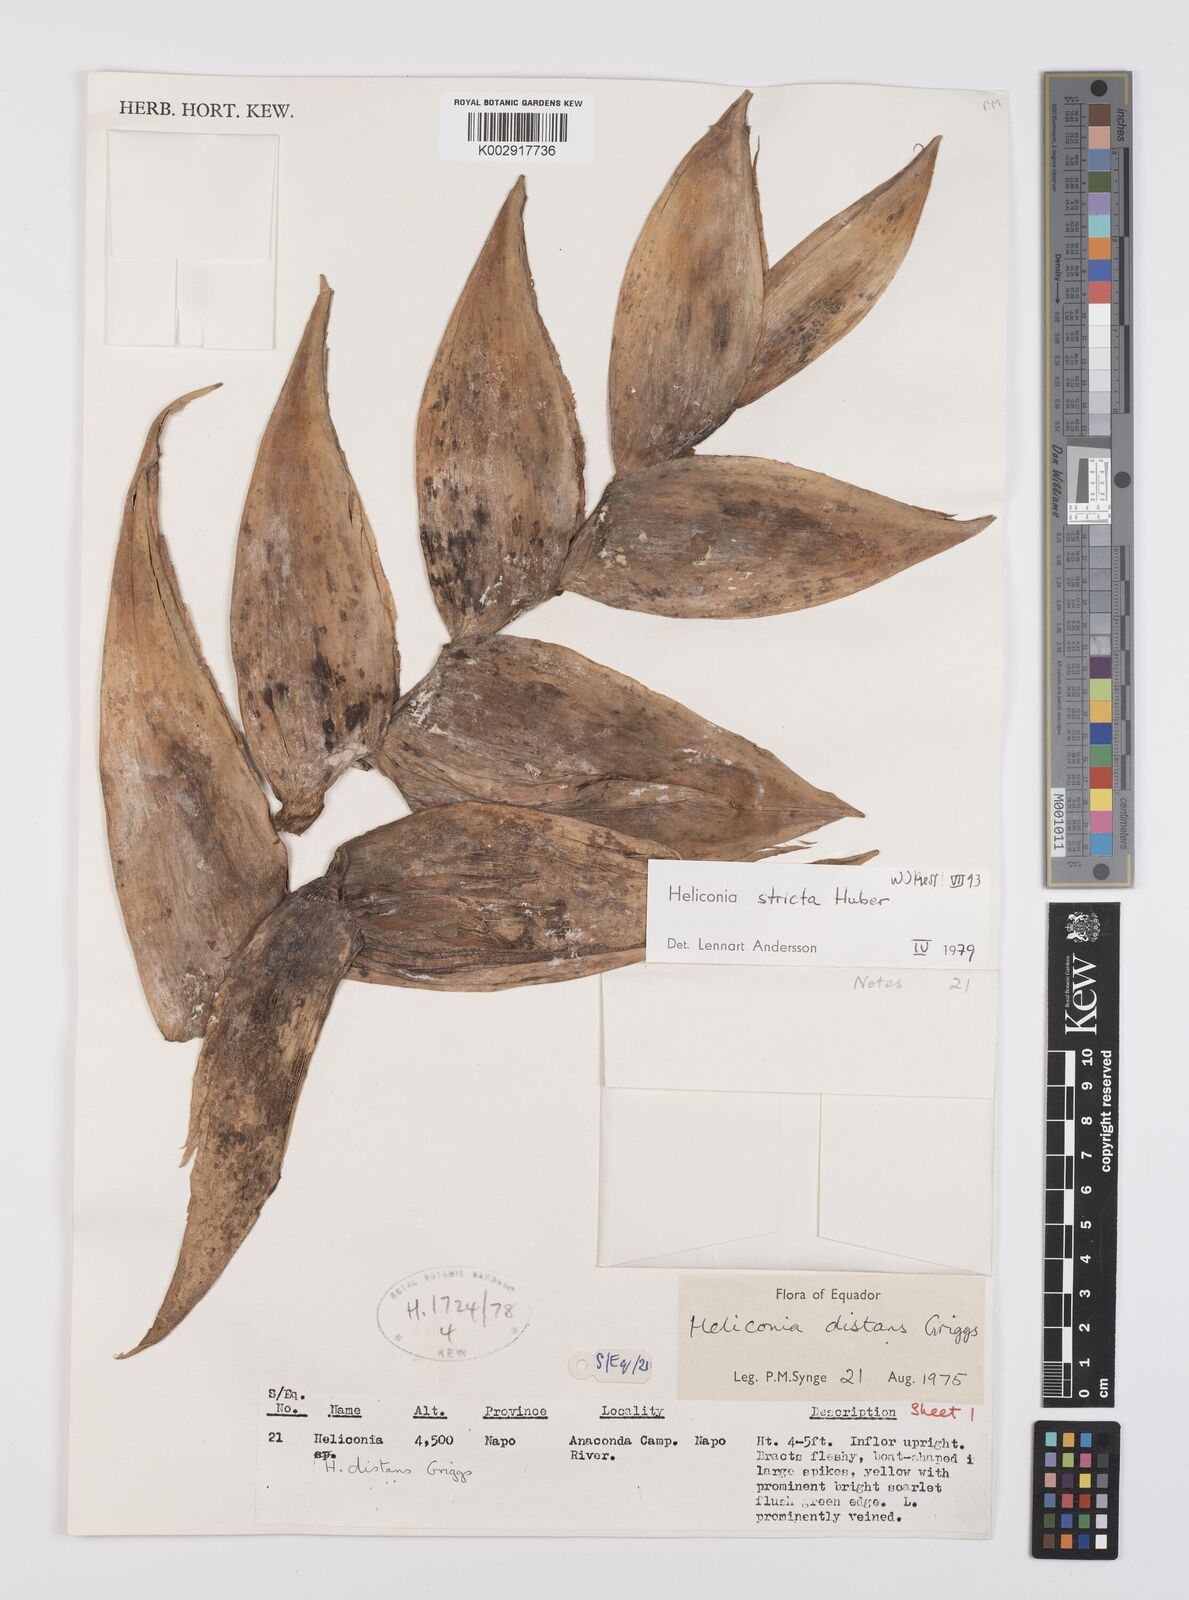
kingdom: Plantae
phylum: Tracheophyta
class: Liliopsida
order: Zingiberales
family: Heliconiaceae
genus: Heliconia
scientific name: Heliconia stricta
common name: Small lobster claw
